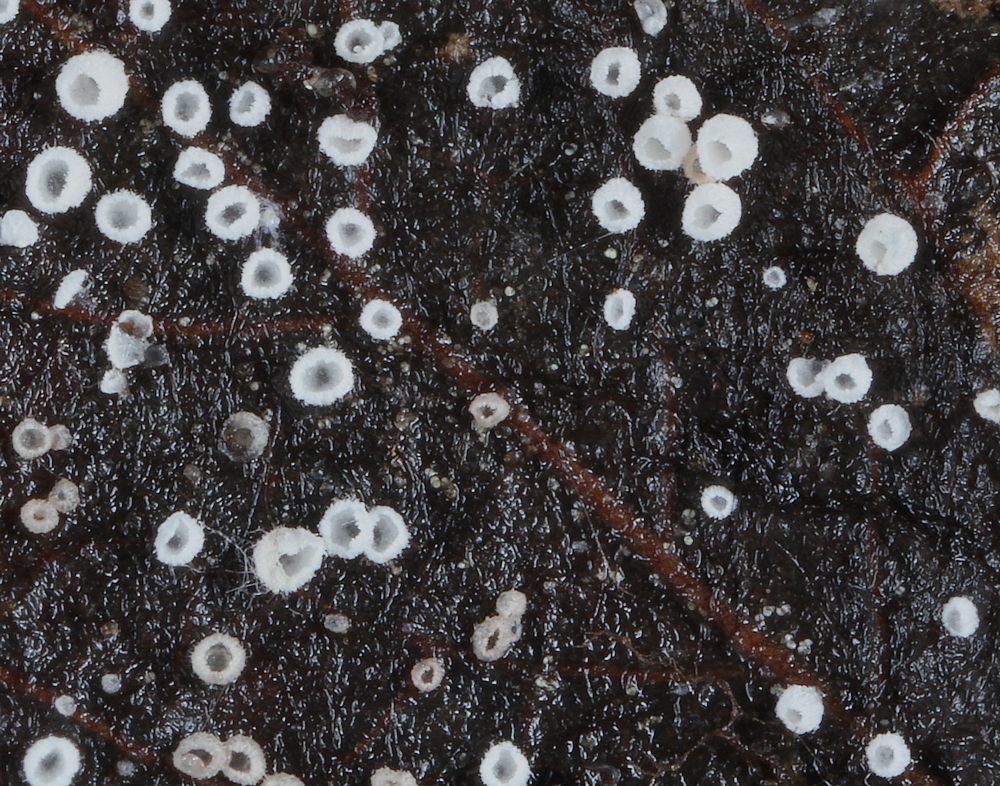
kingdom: Fungi
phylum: Basidiomycota
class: Agaricomycetes
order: Agaricales
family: Marasmiaceae
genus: Rectipilus
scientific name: Rectipilus afibulatus
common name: øskenløs hængerør
